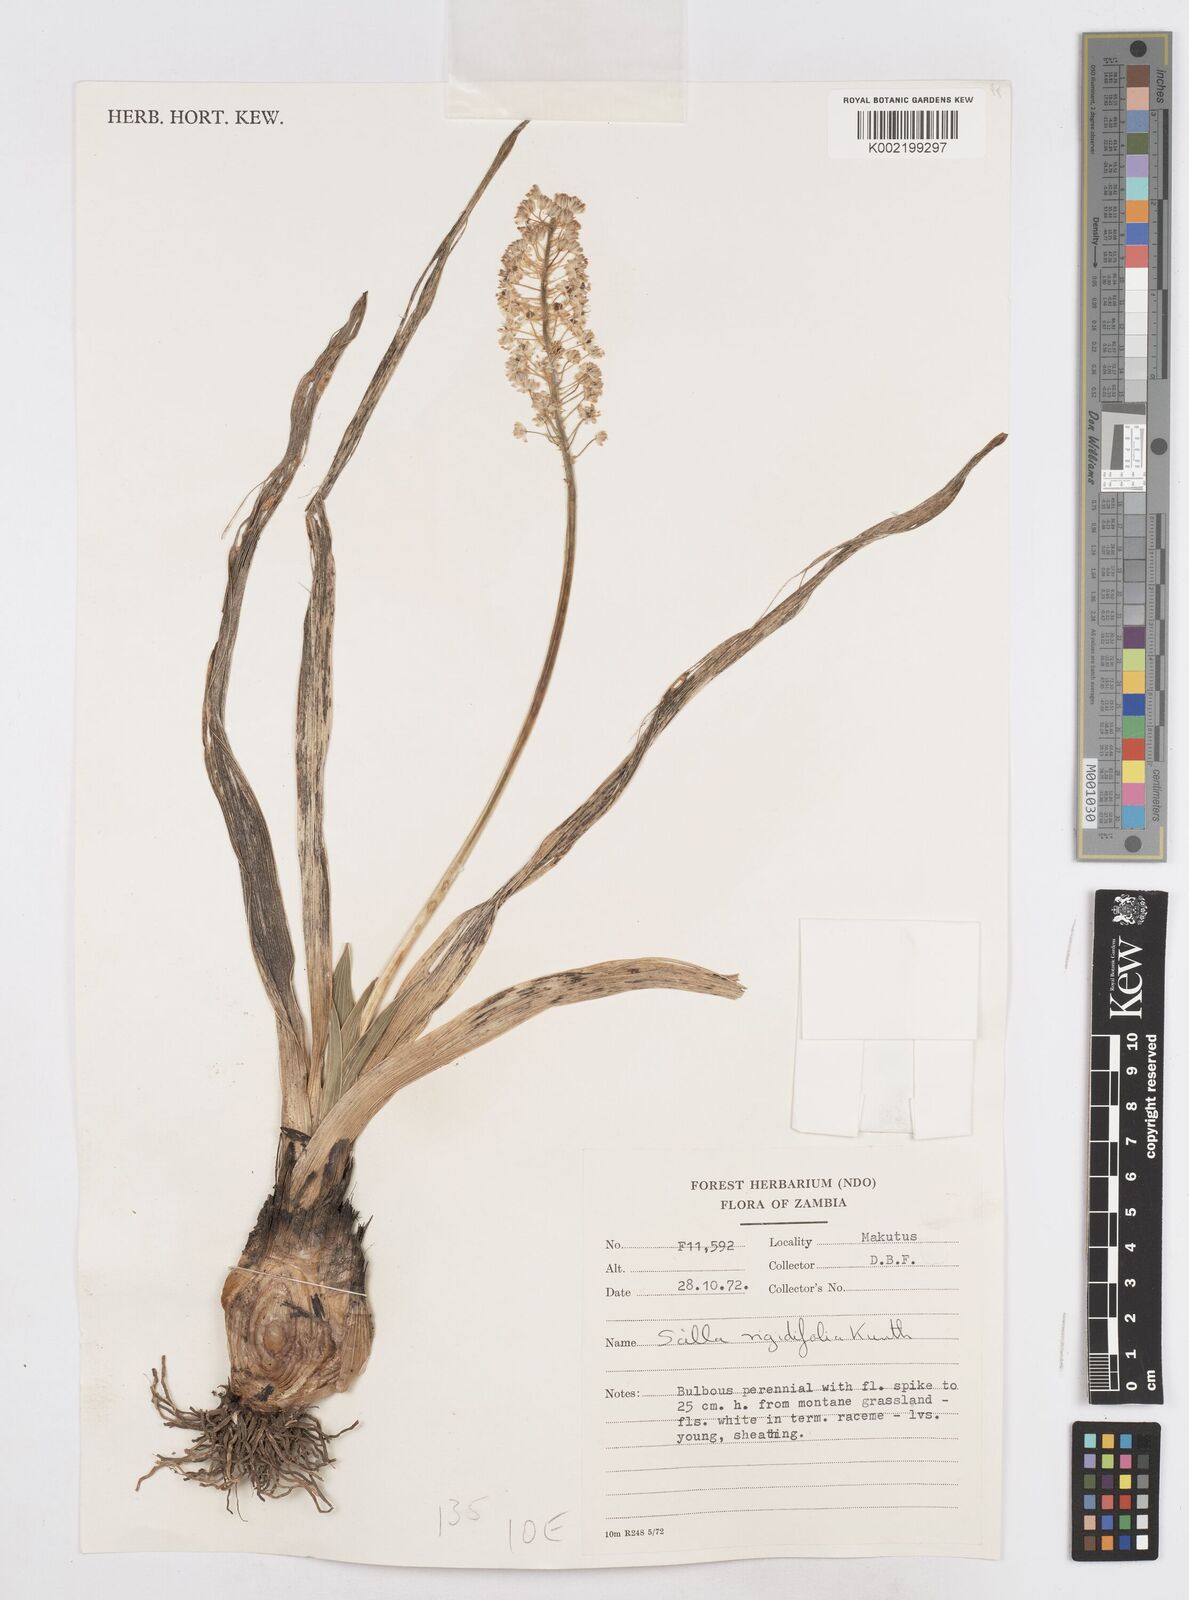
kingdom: Plantae
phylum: Tracheophyta
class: Liliopsida
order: Asparagales
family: Asparagaceae
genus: Schizocarphus
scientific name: Schizocarphus nervosus
